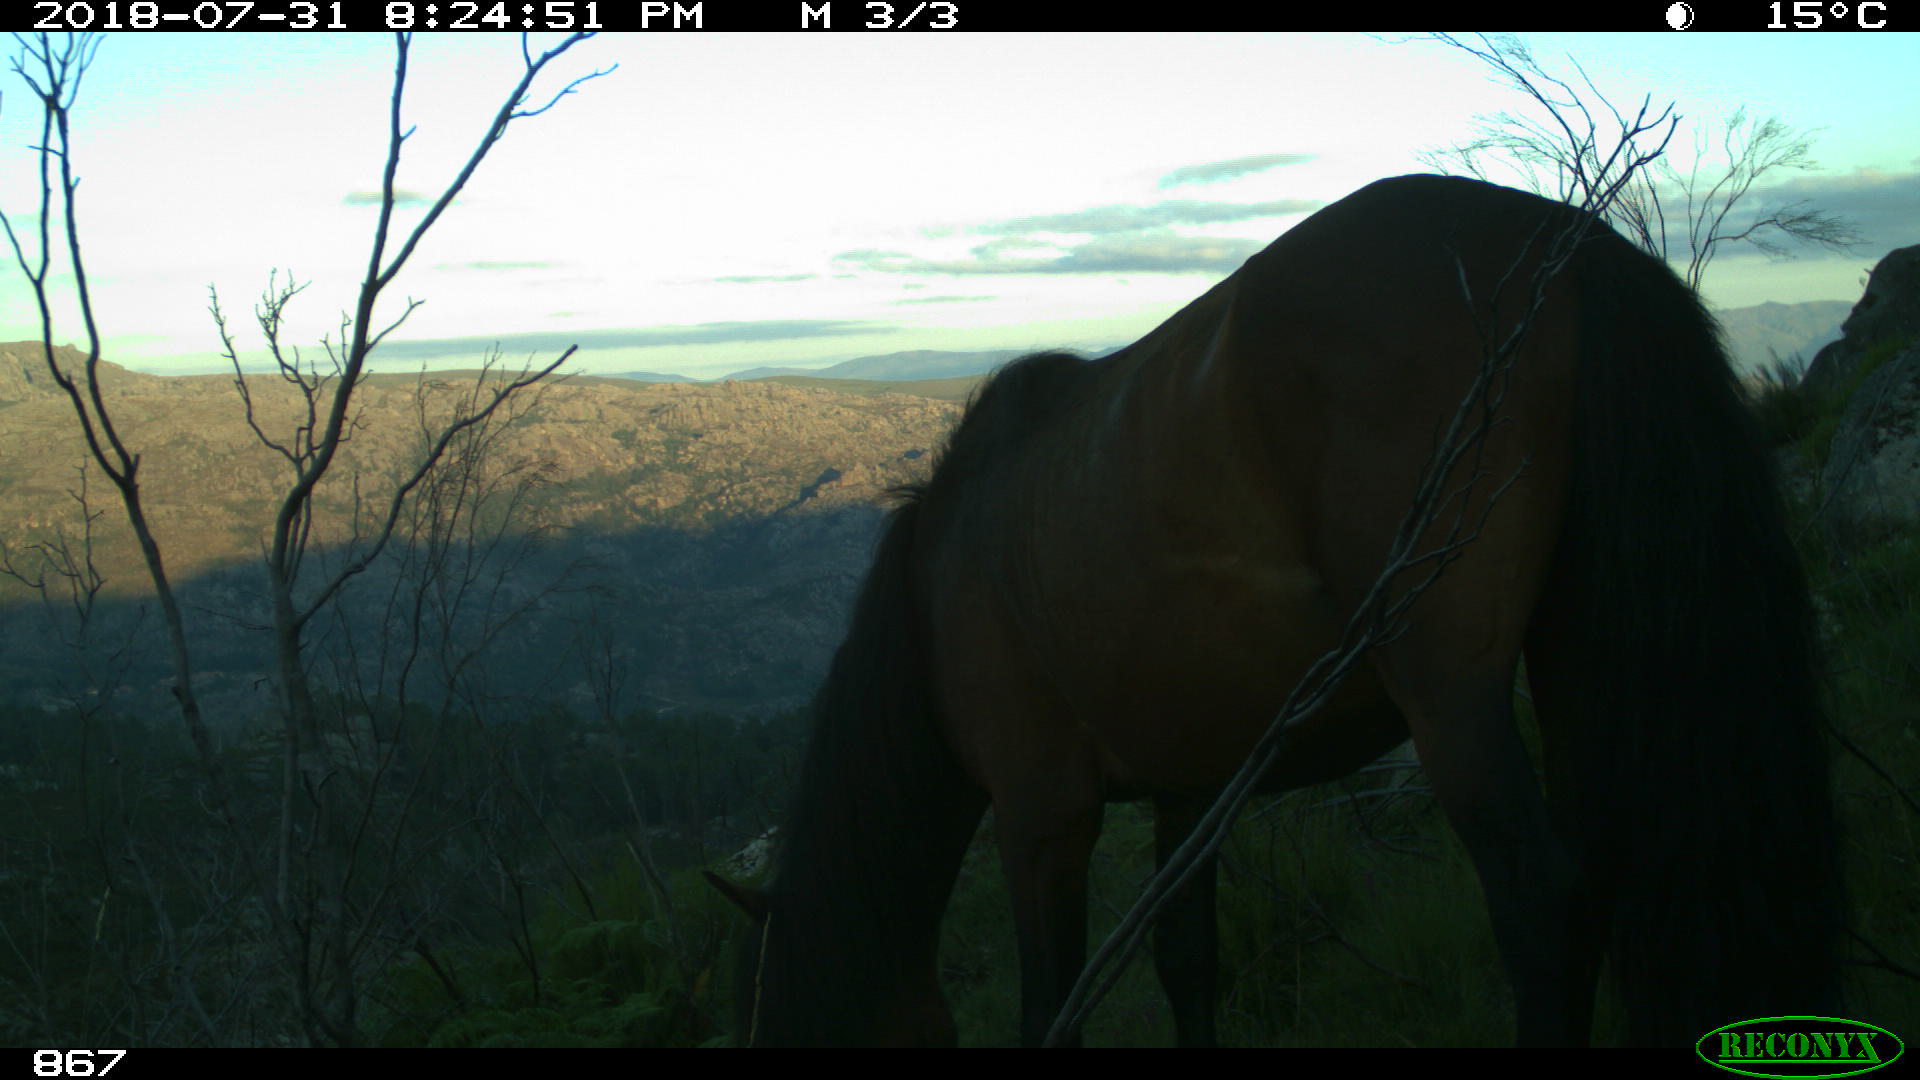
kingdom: Animalia
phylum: Chordata
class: Mammalia
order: Perissodactyla
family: Equidae
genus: Equus
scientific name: Equus caballus
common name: Horse
